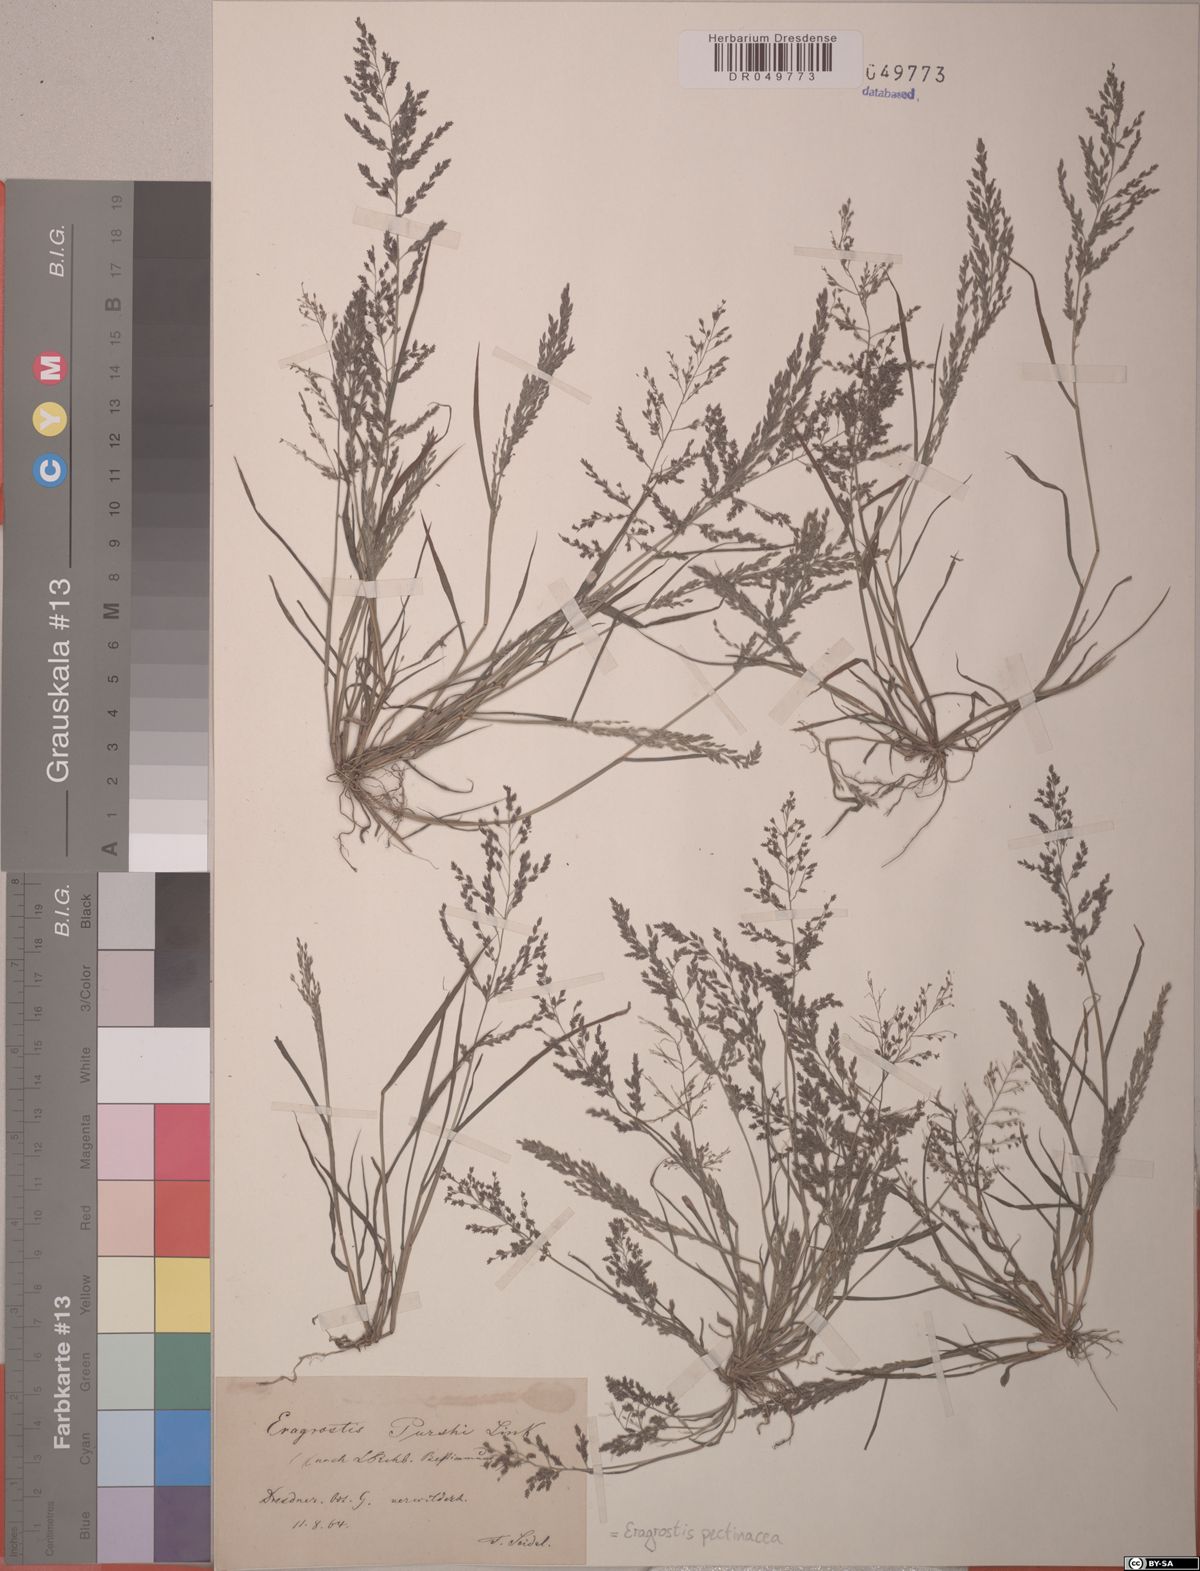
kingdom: Plantae
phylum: Tracheophyta
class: Liliopsida
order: Poales
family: Poaceae
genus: Eragrostis
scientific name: Eragrostis pectinacea
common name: Tufted lovegrass
